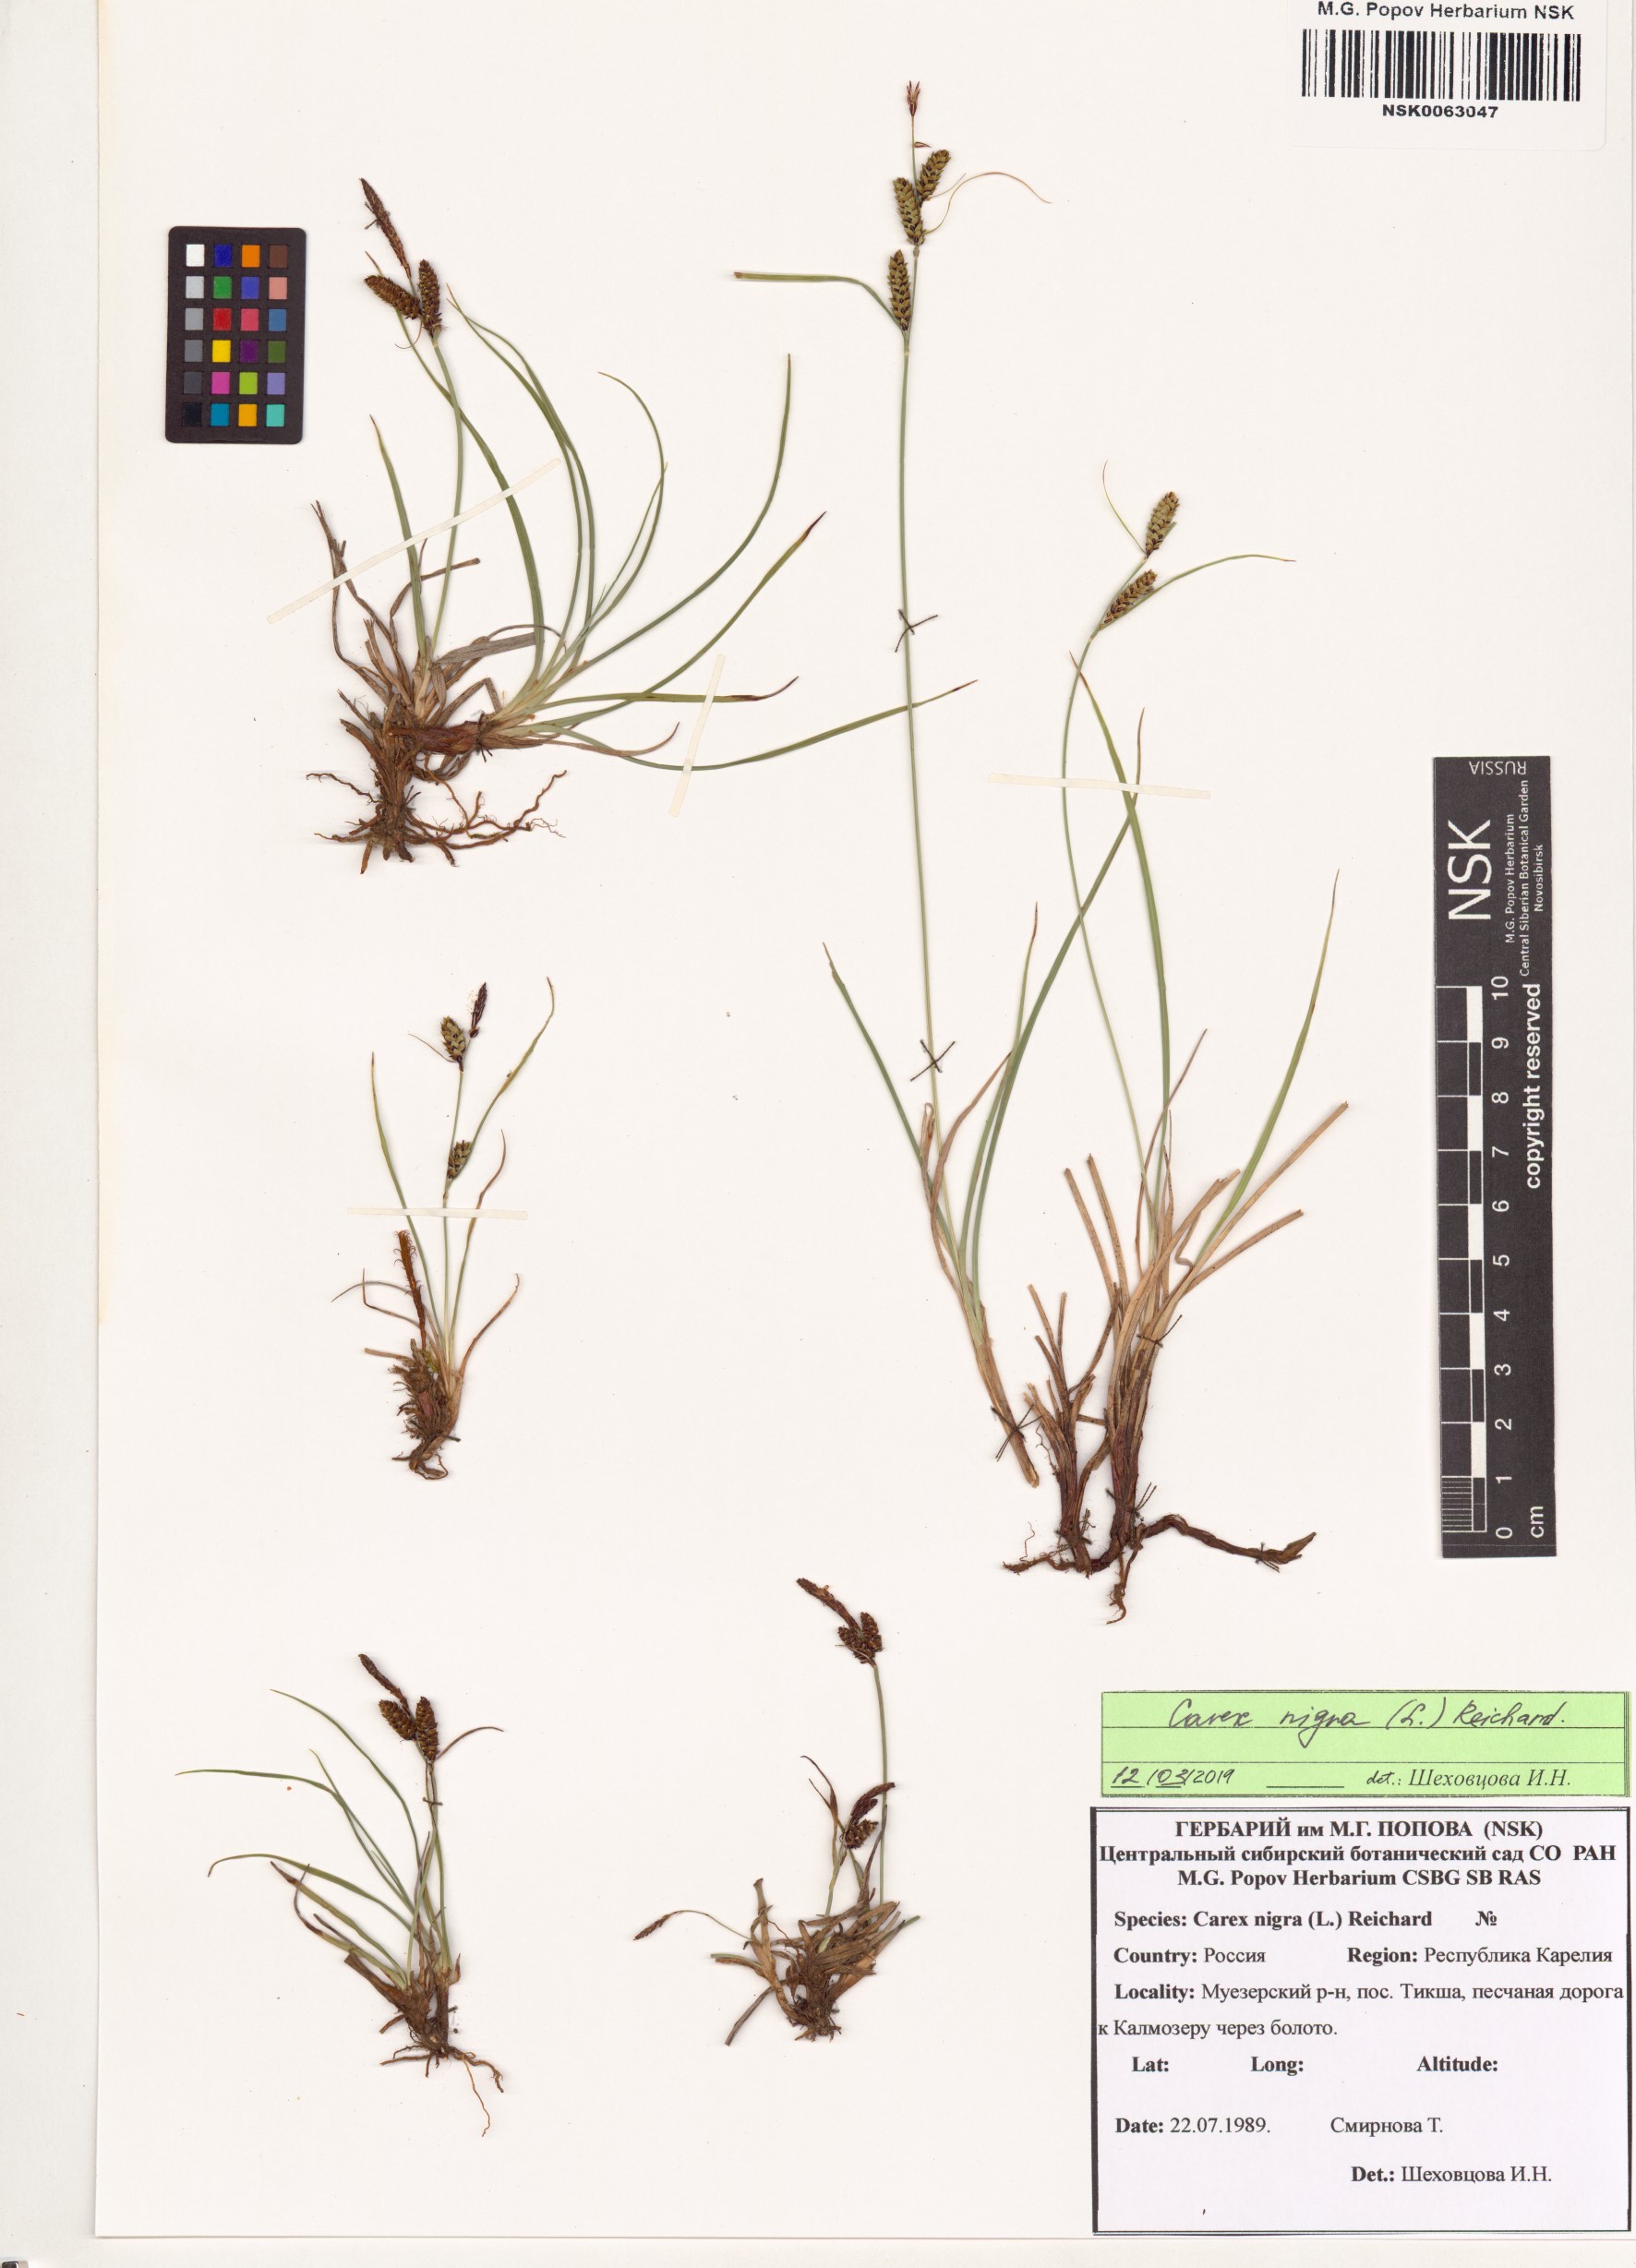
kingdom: Plantae
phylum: Tracheophyta
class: Liliopsida
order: Poales
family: Cyperaceae
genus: Carex
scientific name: Carex nigra
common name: Common sedge
